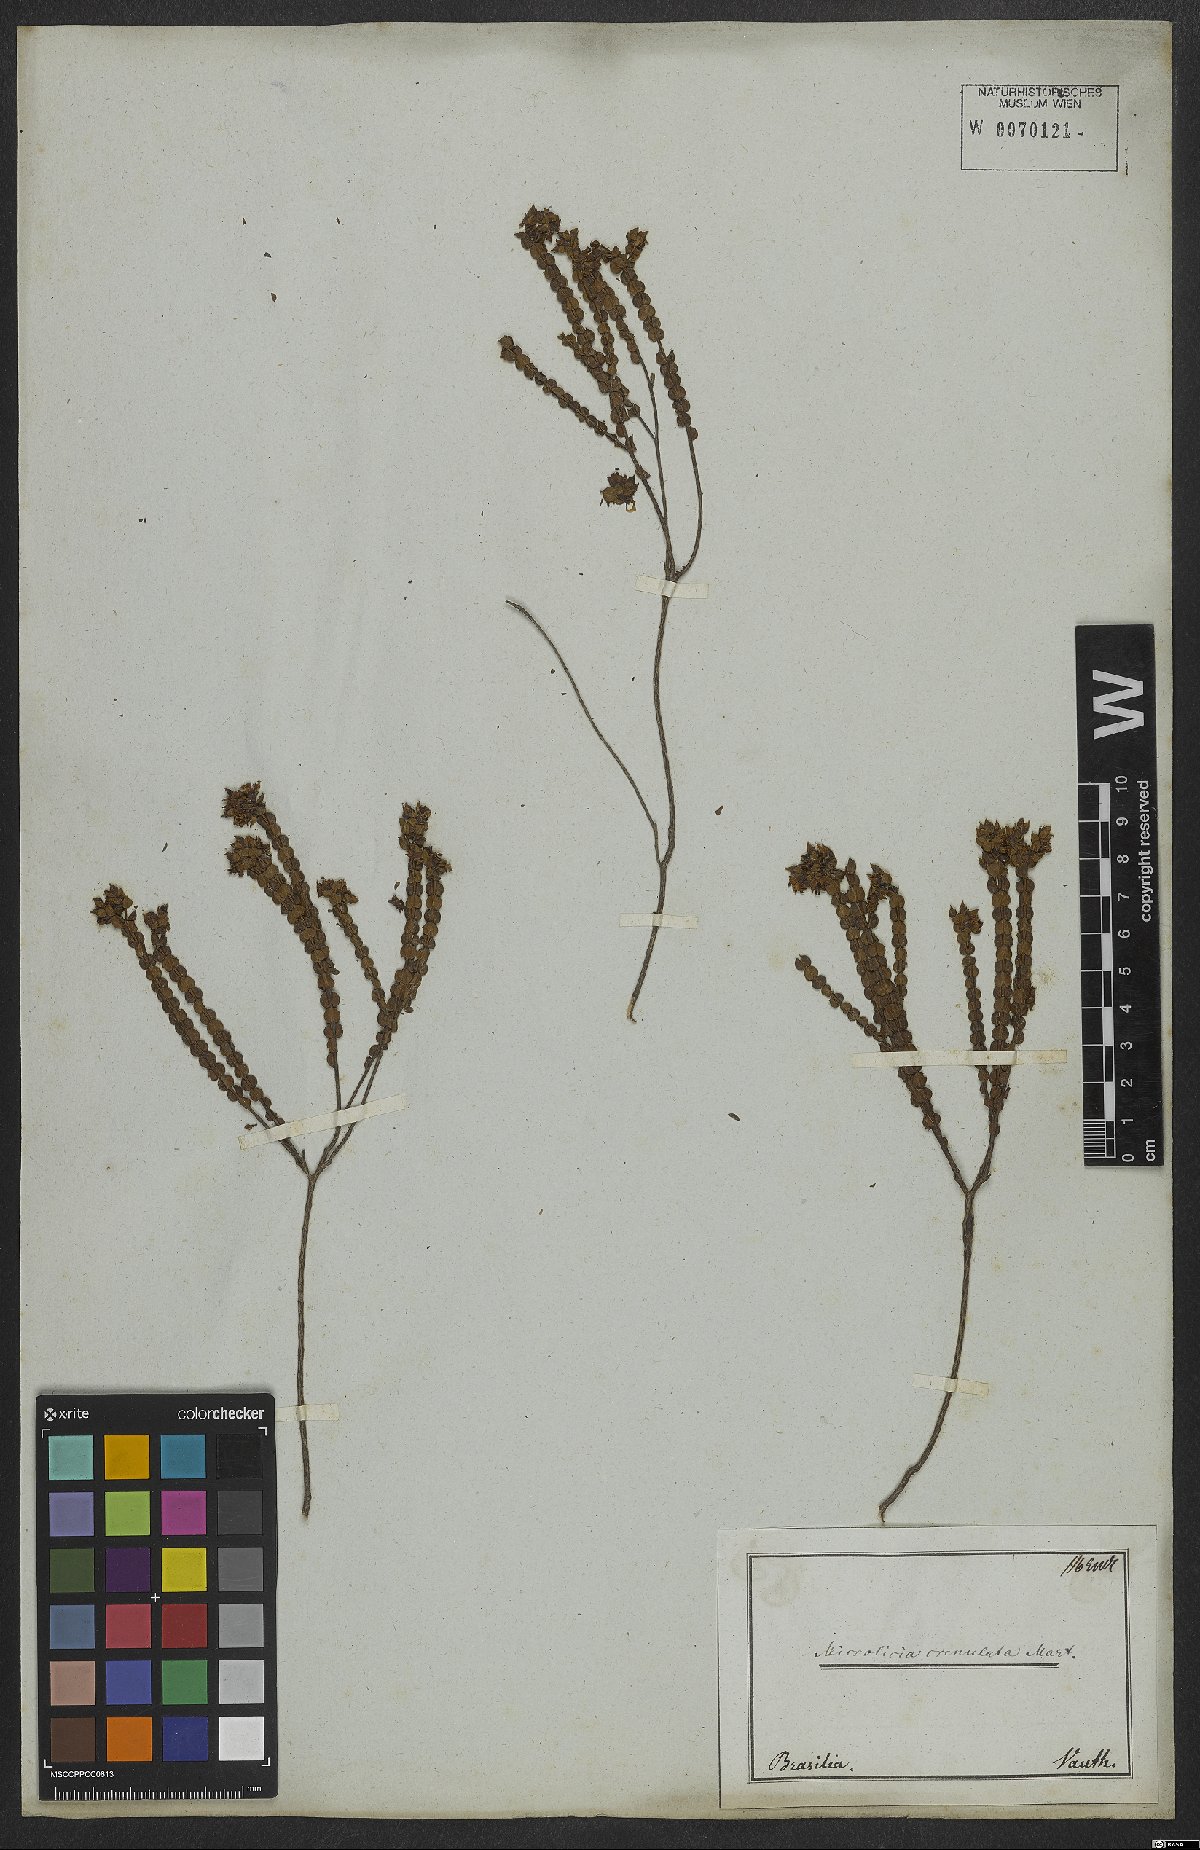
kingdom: Plantae
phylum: Tracheophyta
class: Magnoliopsida
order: Myrtales
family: Melastomataceae
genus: Microlicia
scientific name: Microlicia crenulata
